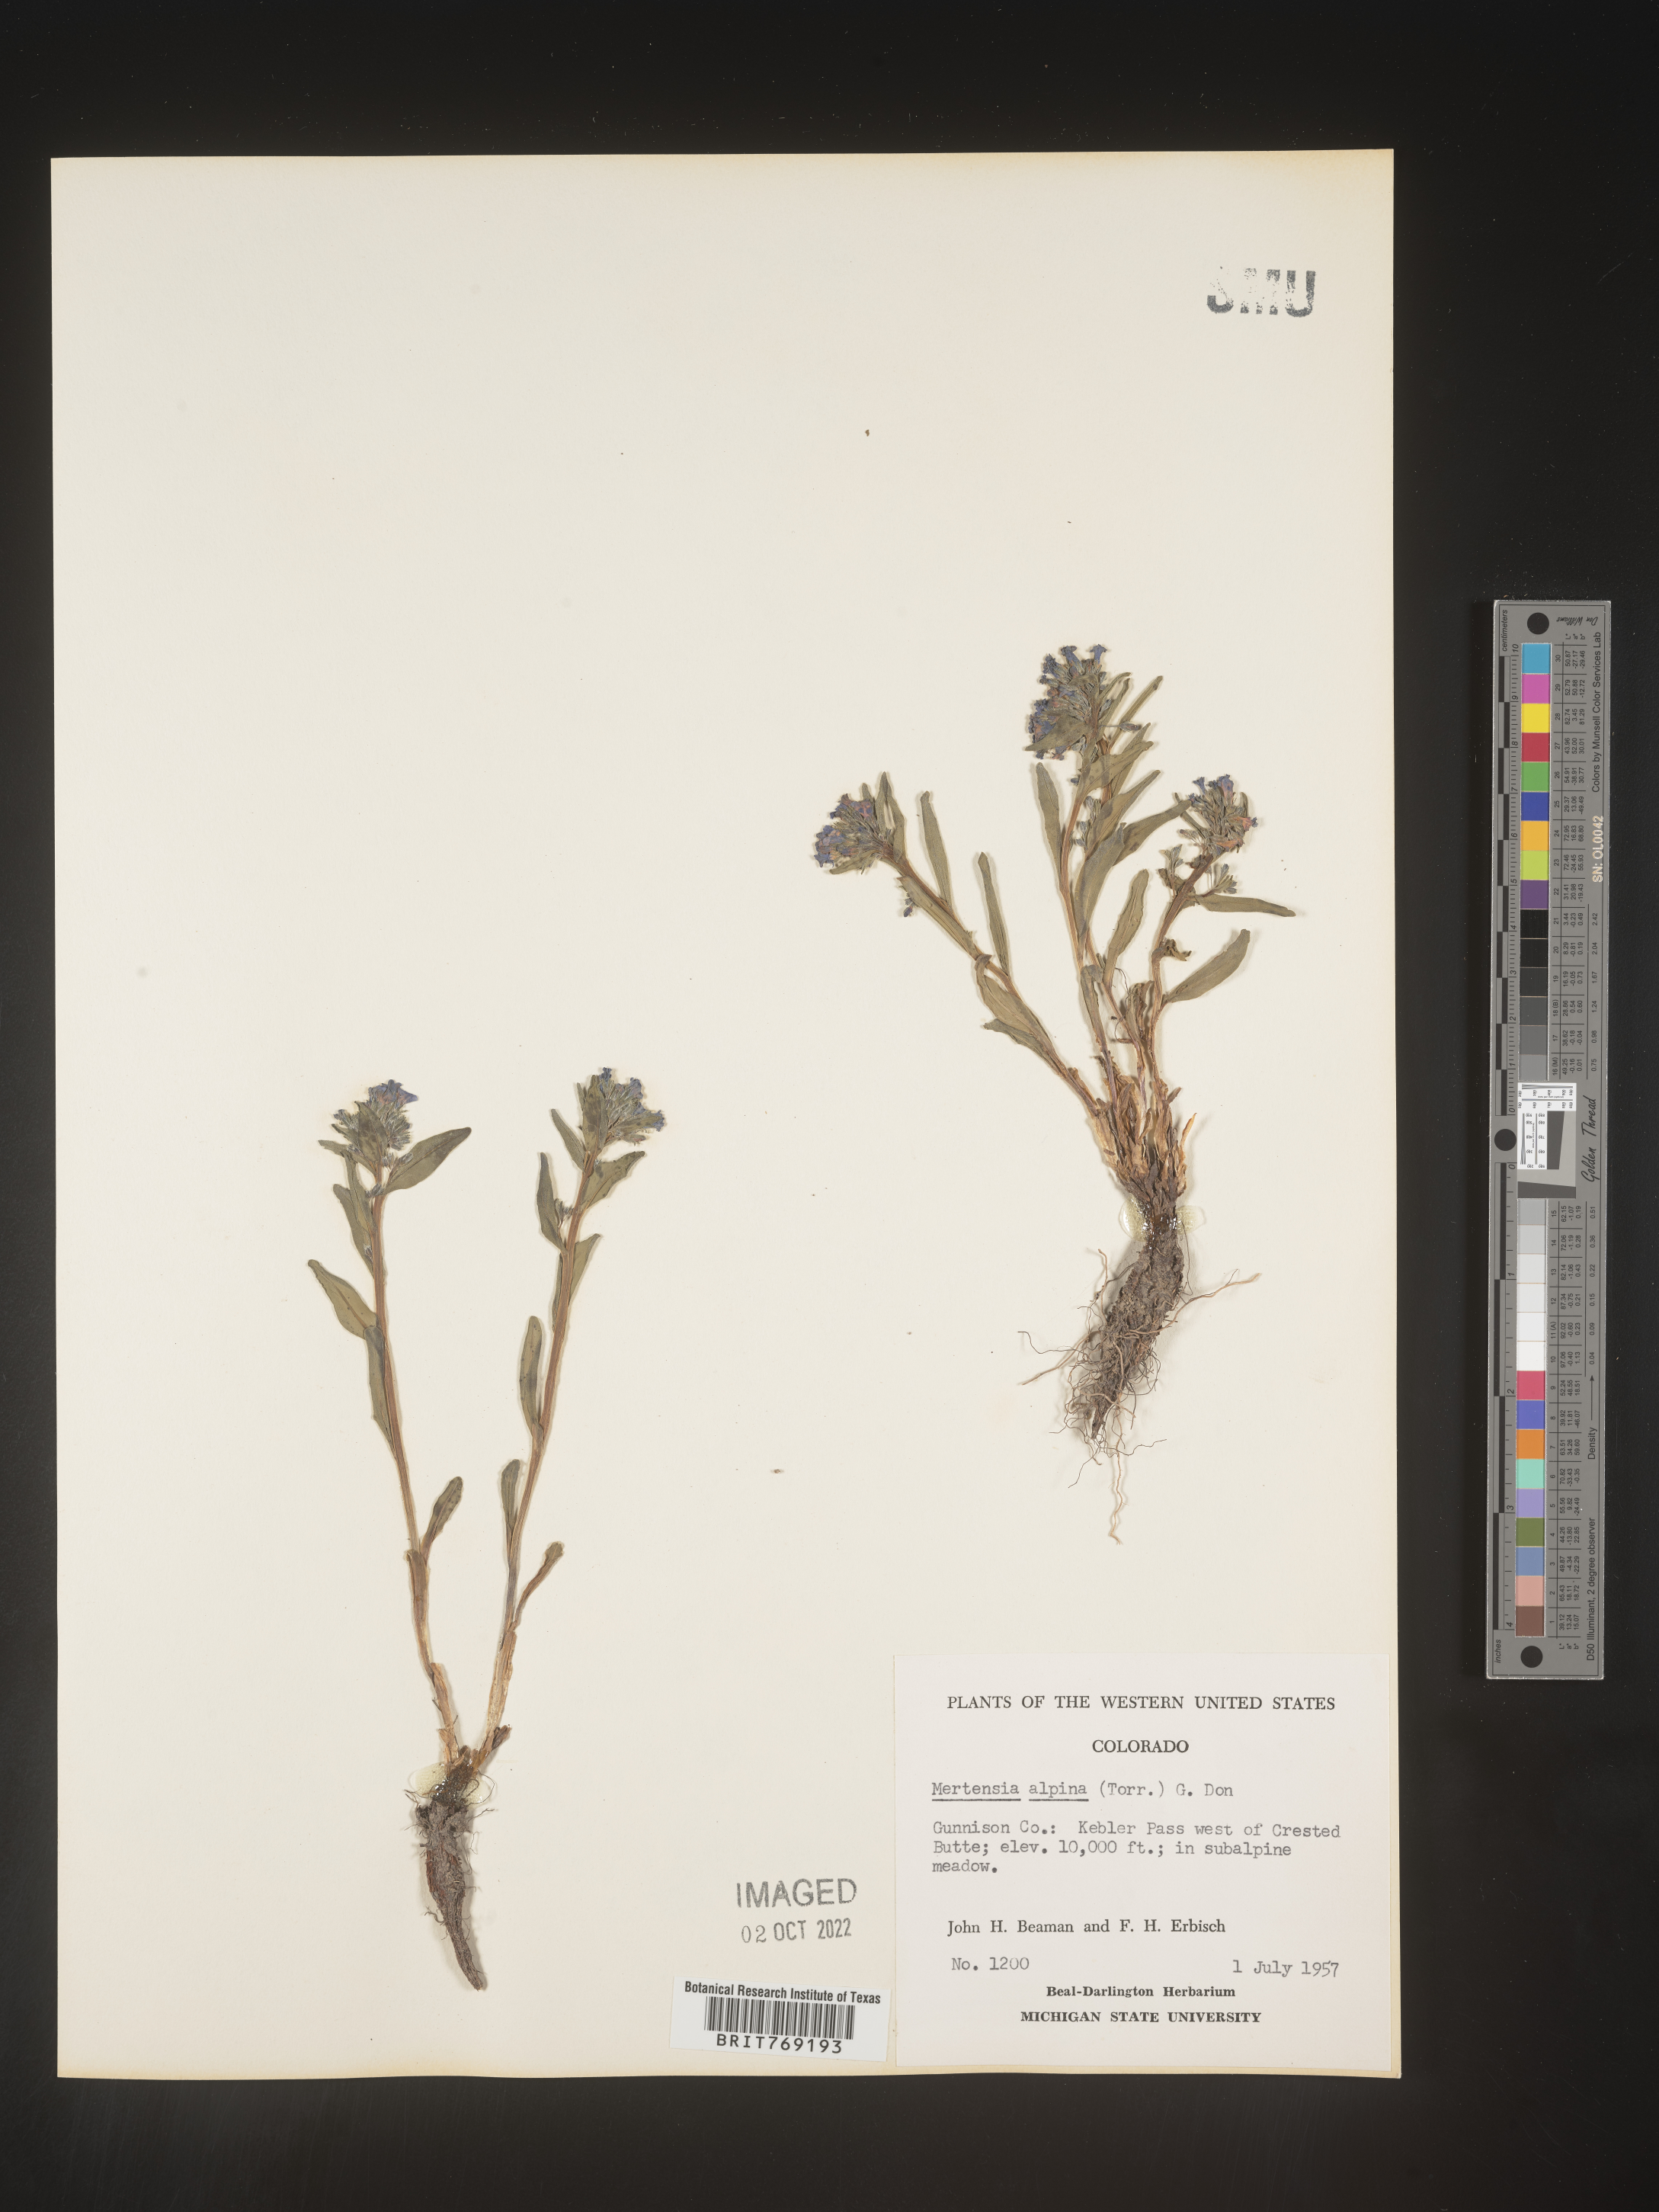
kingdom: Plantae
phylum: Tracheophyta
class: Magnoliopsida
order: Boraginales
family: Boraginaceae
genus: Mertensia
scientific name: Mertensia
